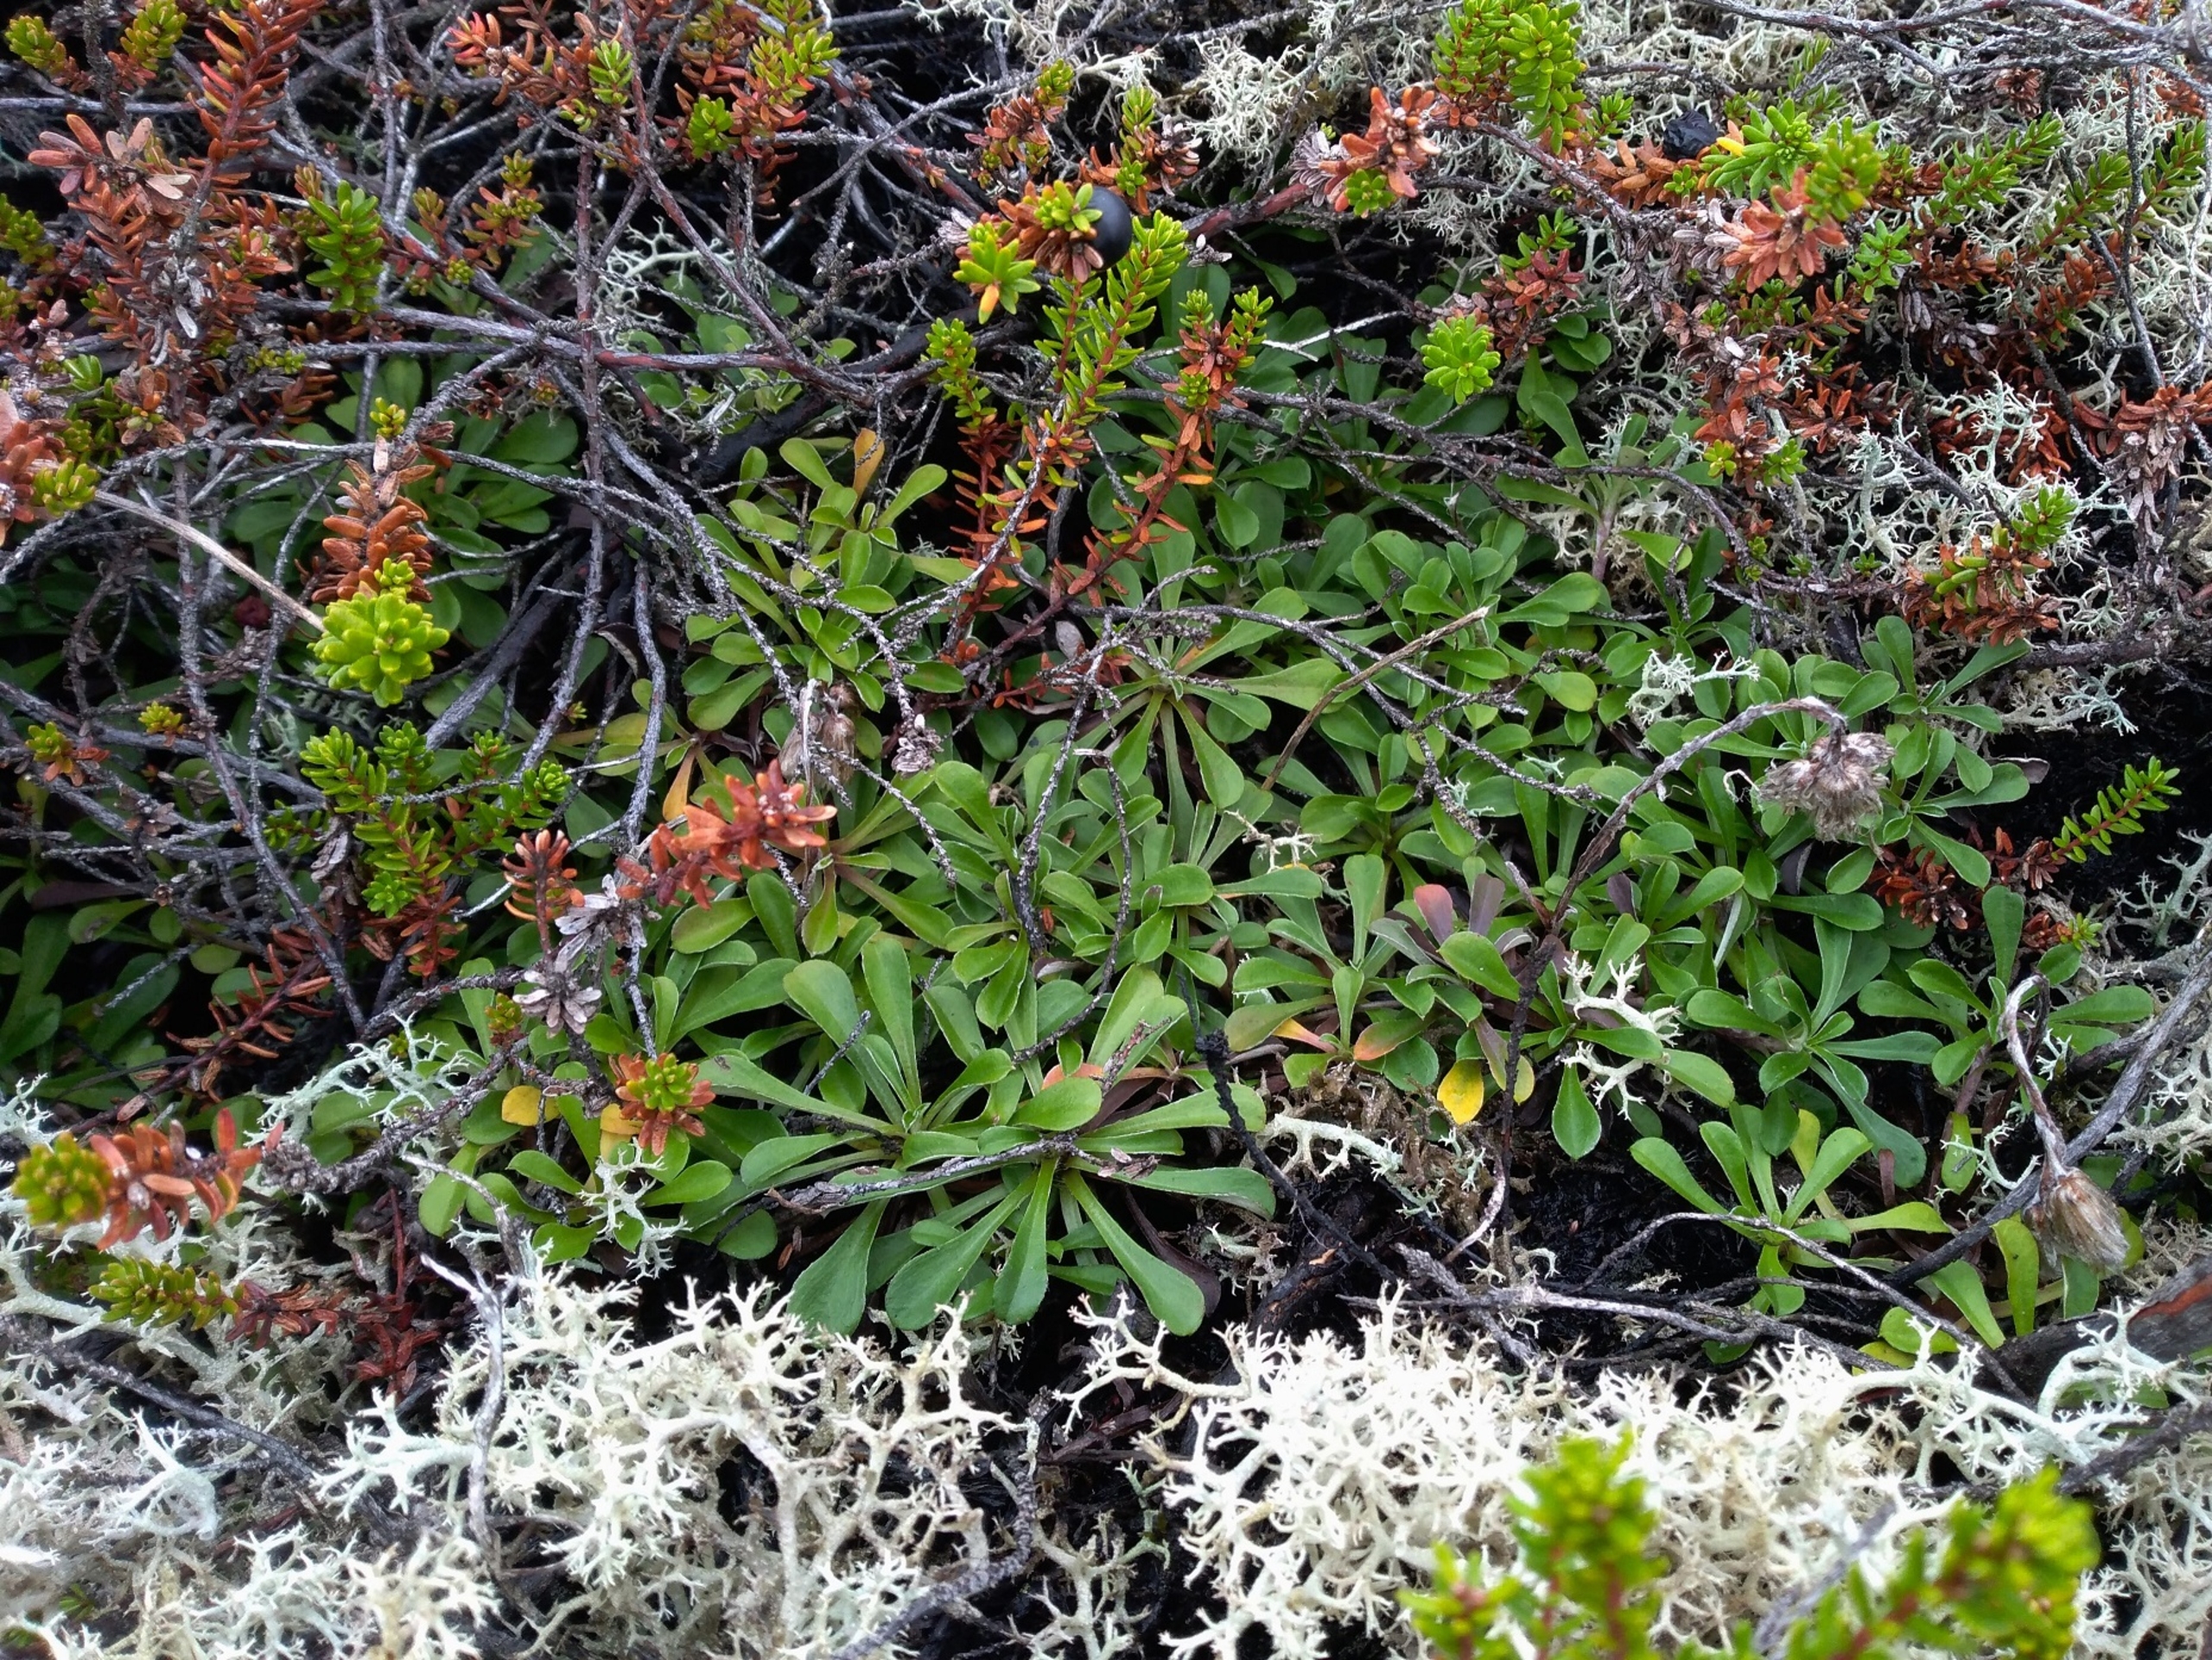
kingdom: Plantae
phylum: Tracheophyta
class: Magnoliopsida
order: Asterales
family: Asteraceae
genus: Antennaria
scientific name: Antennaria dioica
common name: Kattefod
